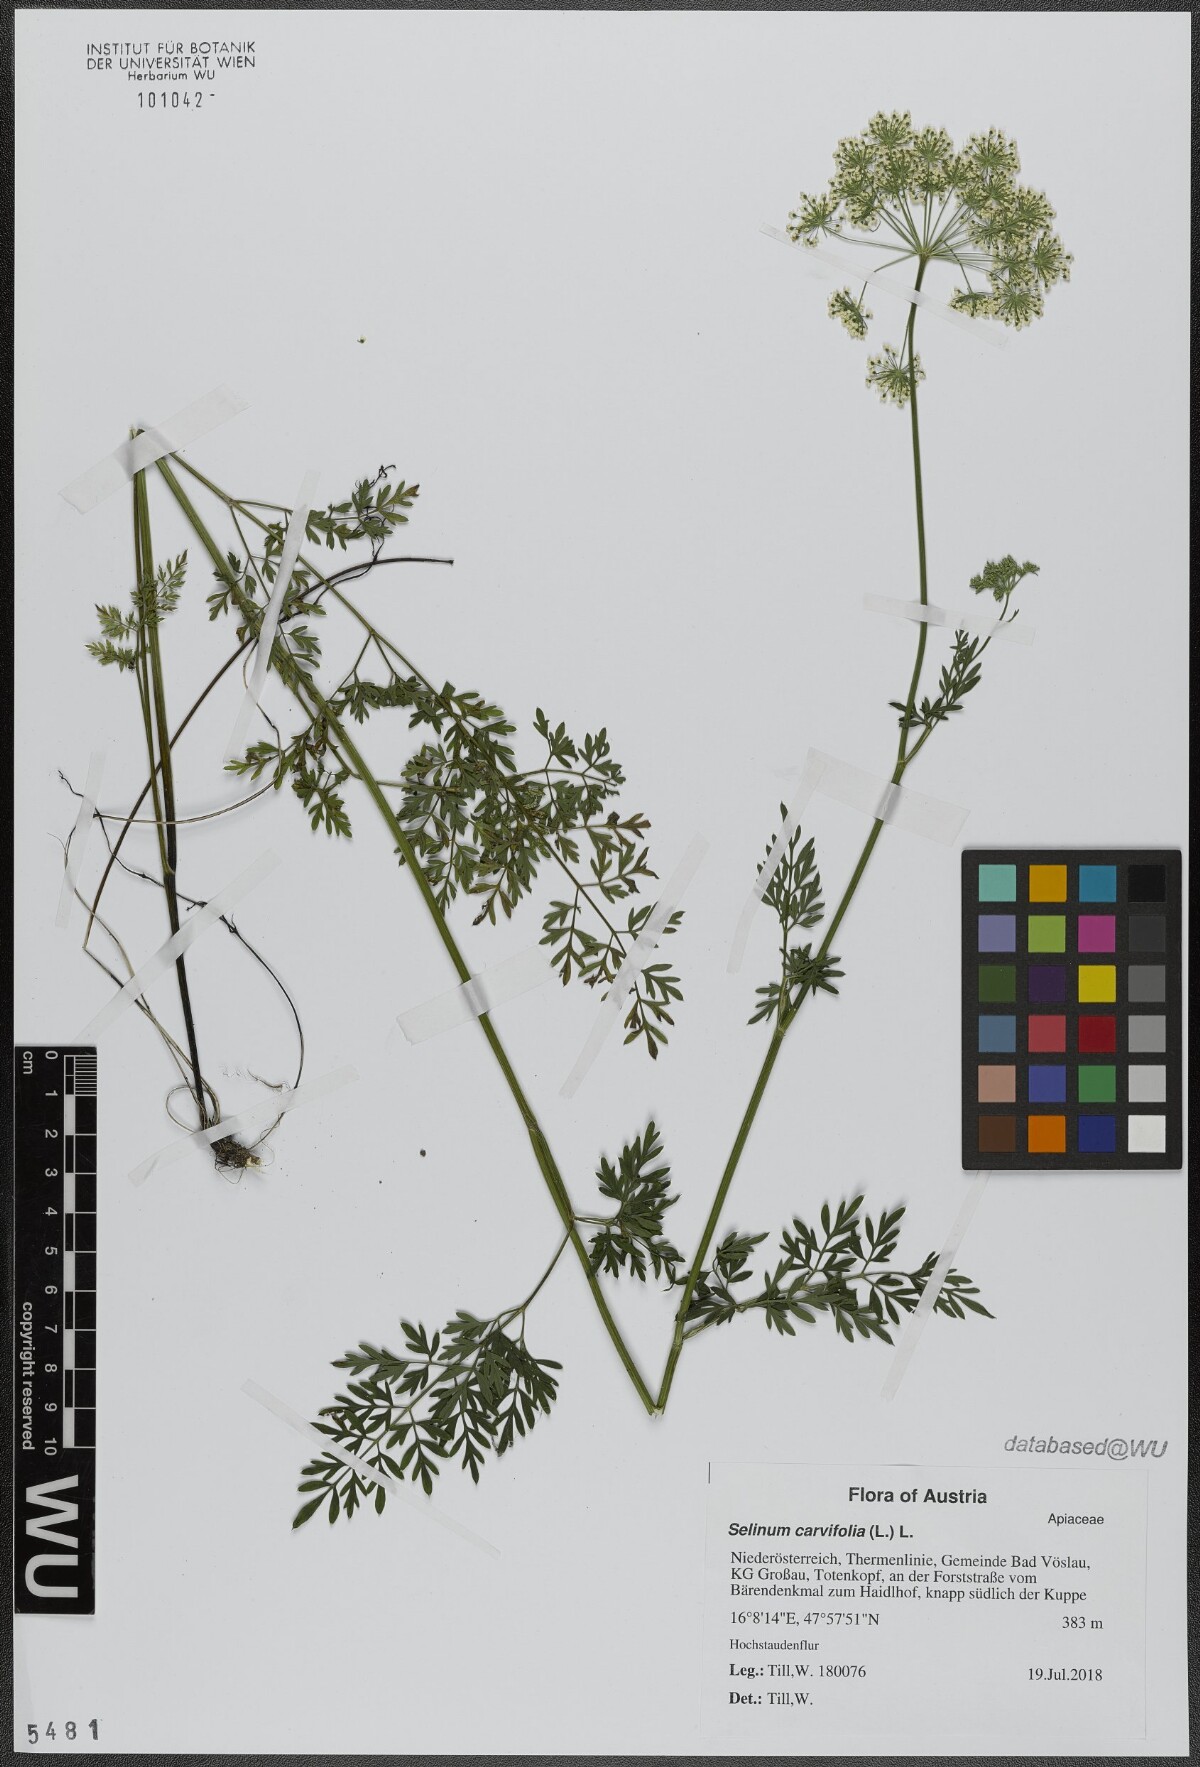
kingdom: Plantae
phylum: Tracheophyta
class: Magnoliopsida
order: Apiales
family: Apiaceae
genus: Selinum
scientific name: Selinum carvifolia
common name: Cambridge milk-parsley
